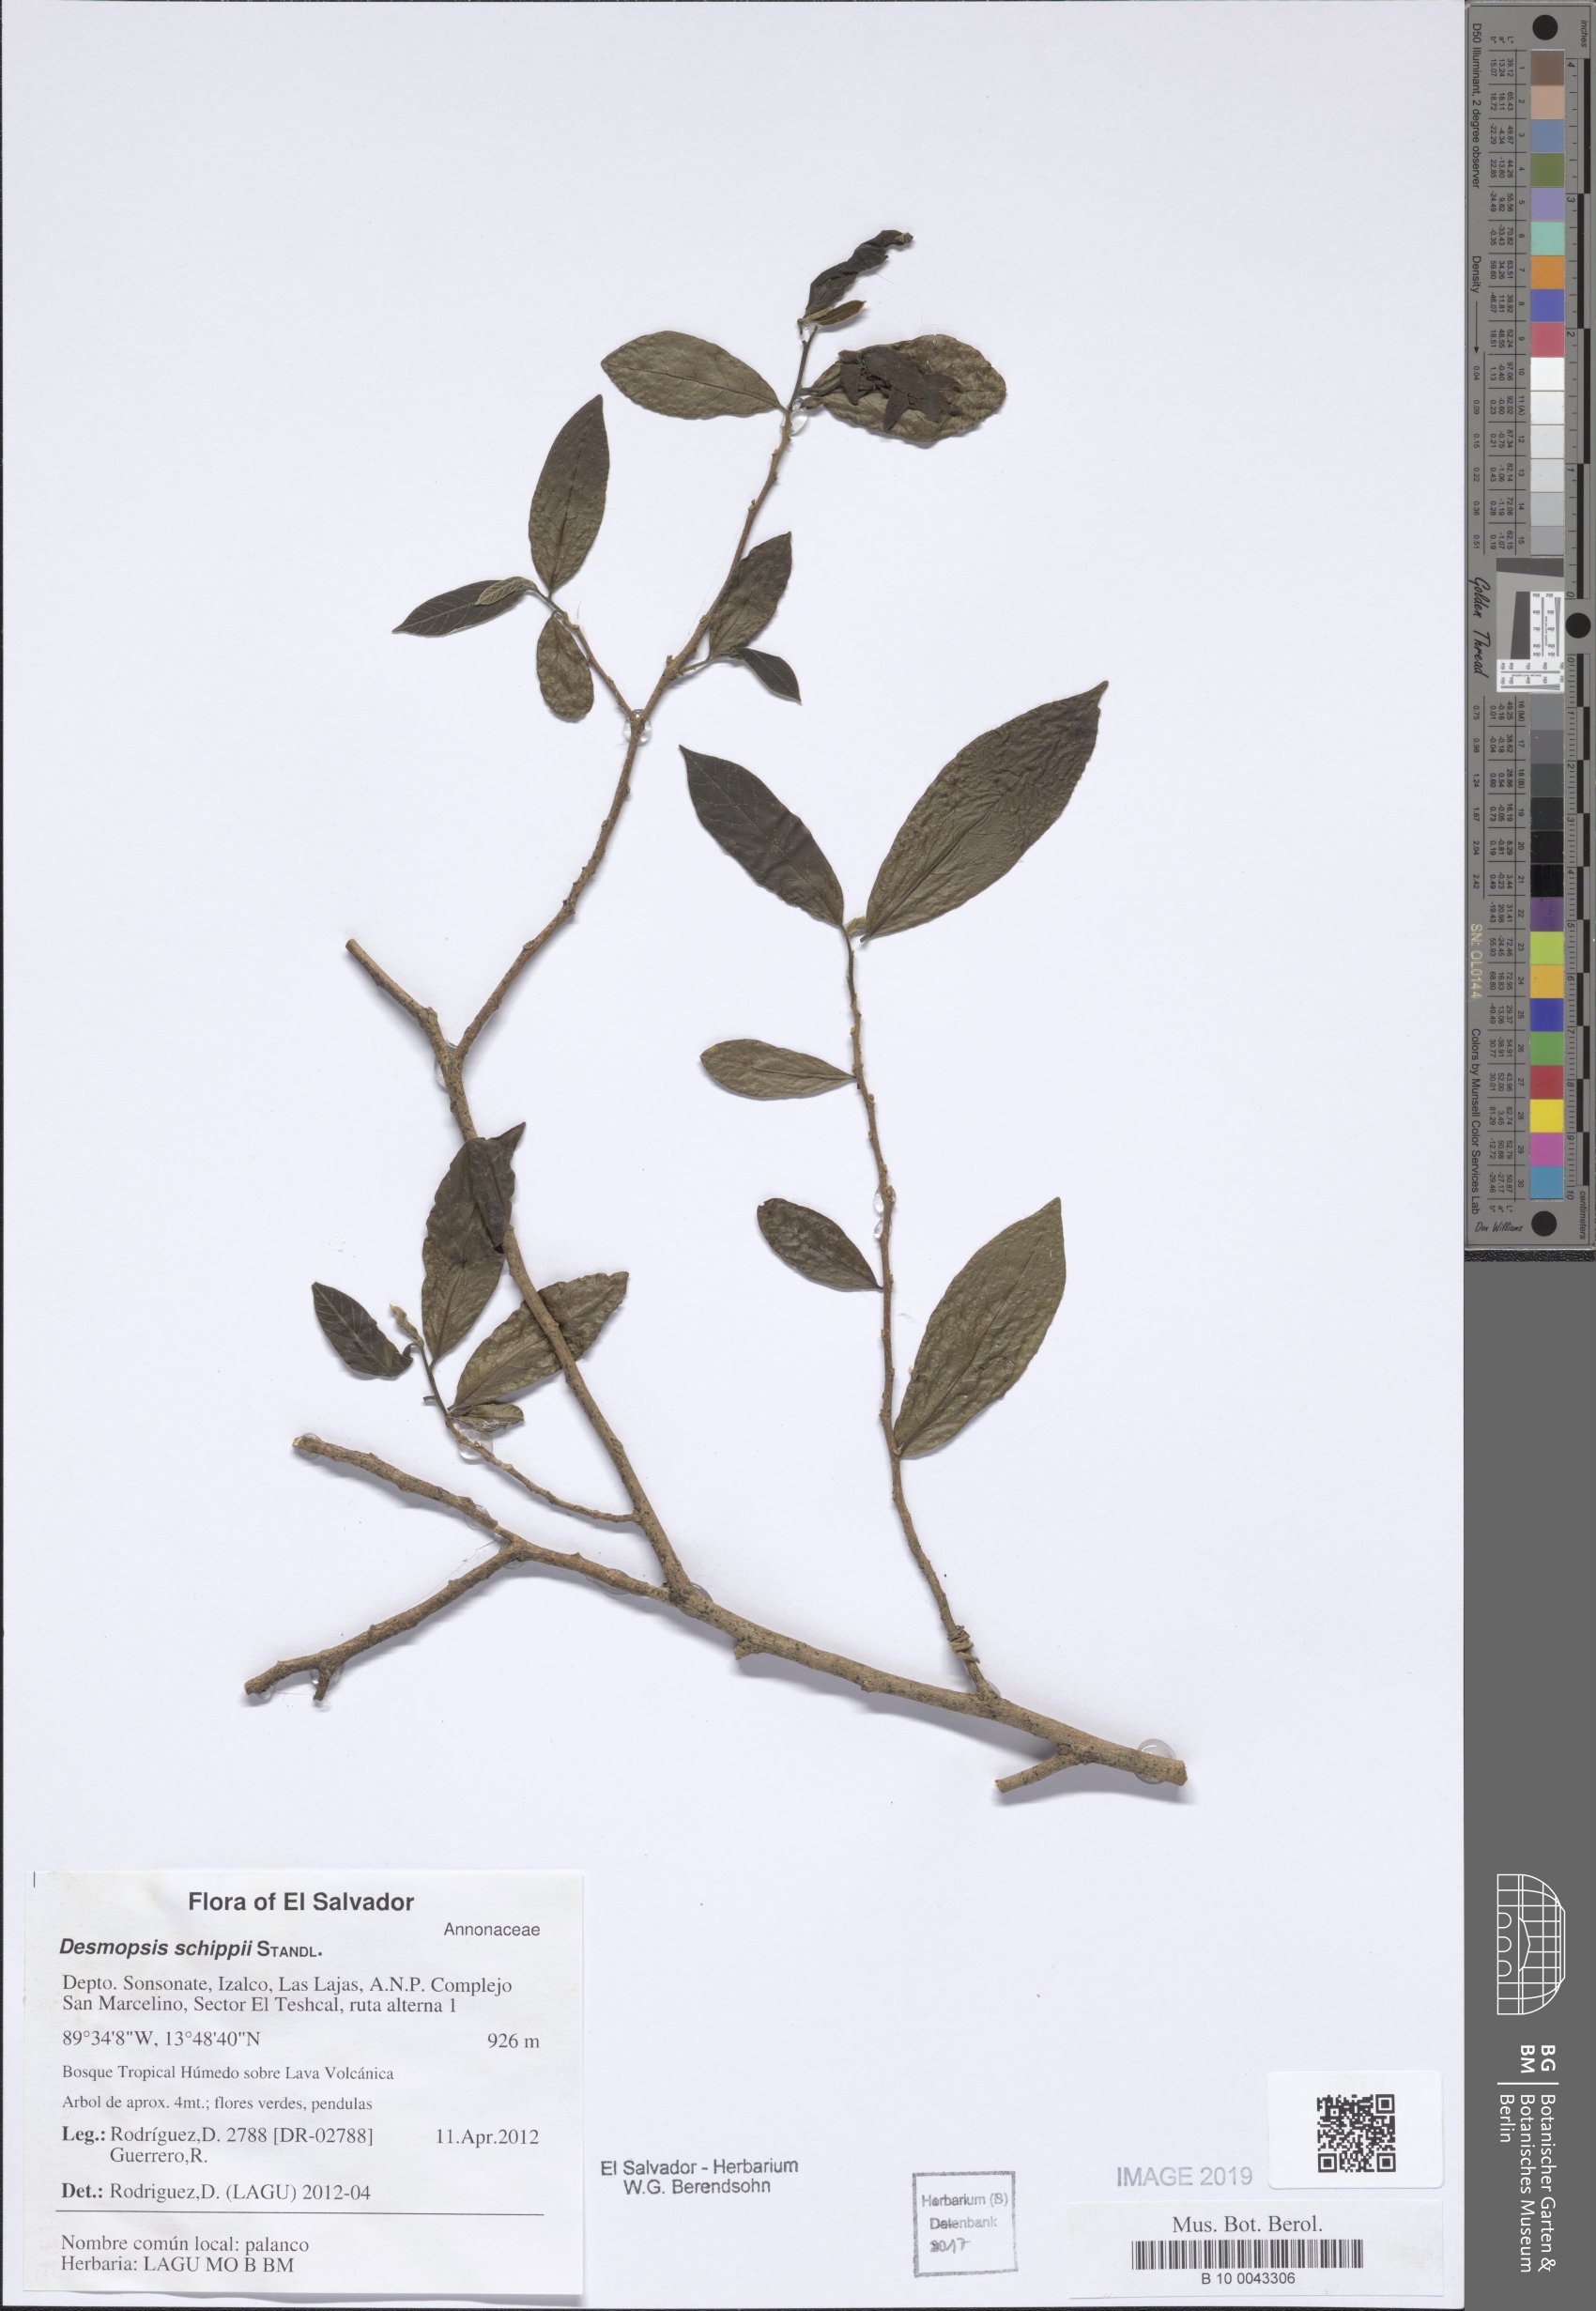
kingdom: Plantae
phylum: Tracheophyta
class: Magnoliopsida
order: Magnoliales
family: Annonaceae
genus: Desmopsis
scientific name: Desmopsis schippii
